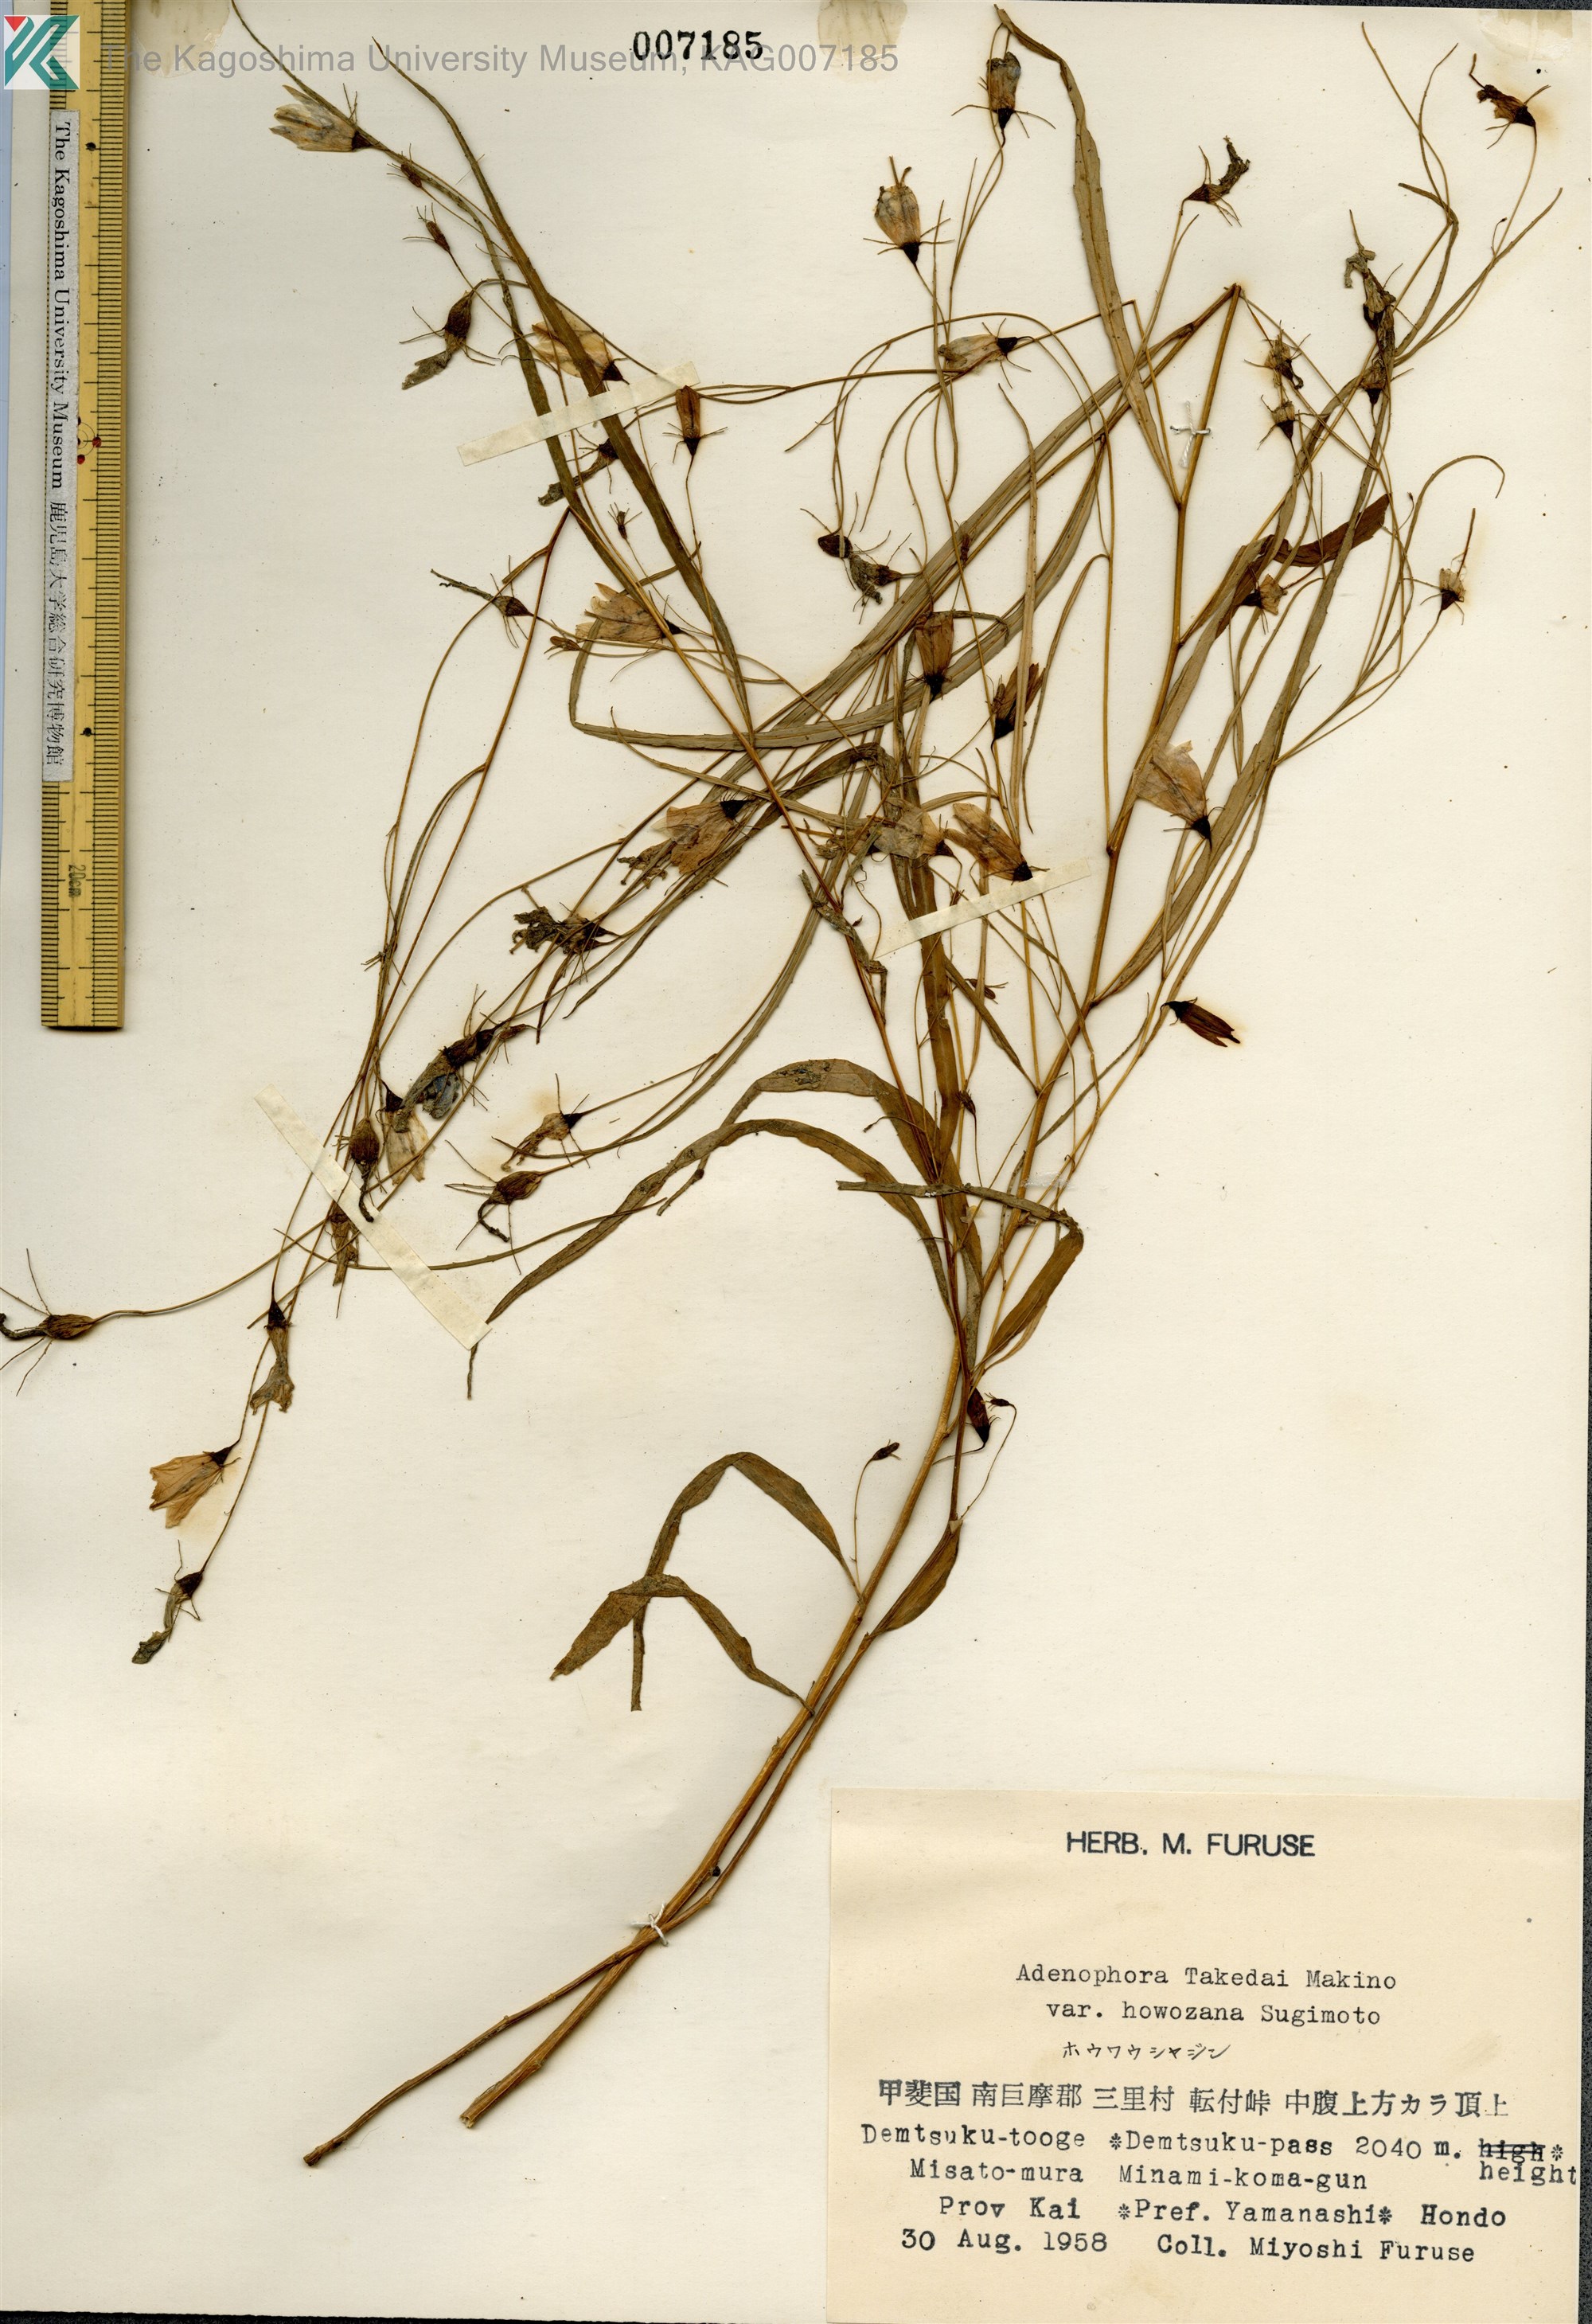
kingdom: Plantae
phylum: Tracheophyta
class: Magnoliopsida
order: Asterales
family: Campanulaceae
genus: Adenophora
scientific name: Adenophora takedae
